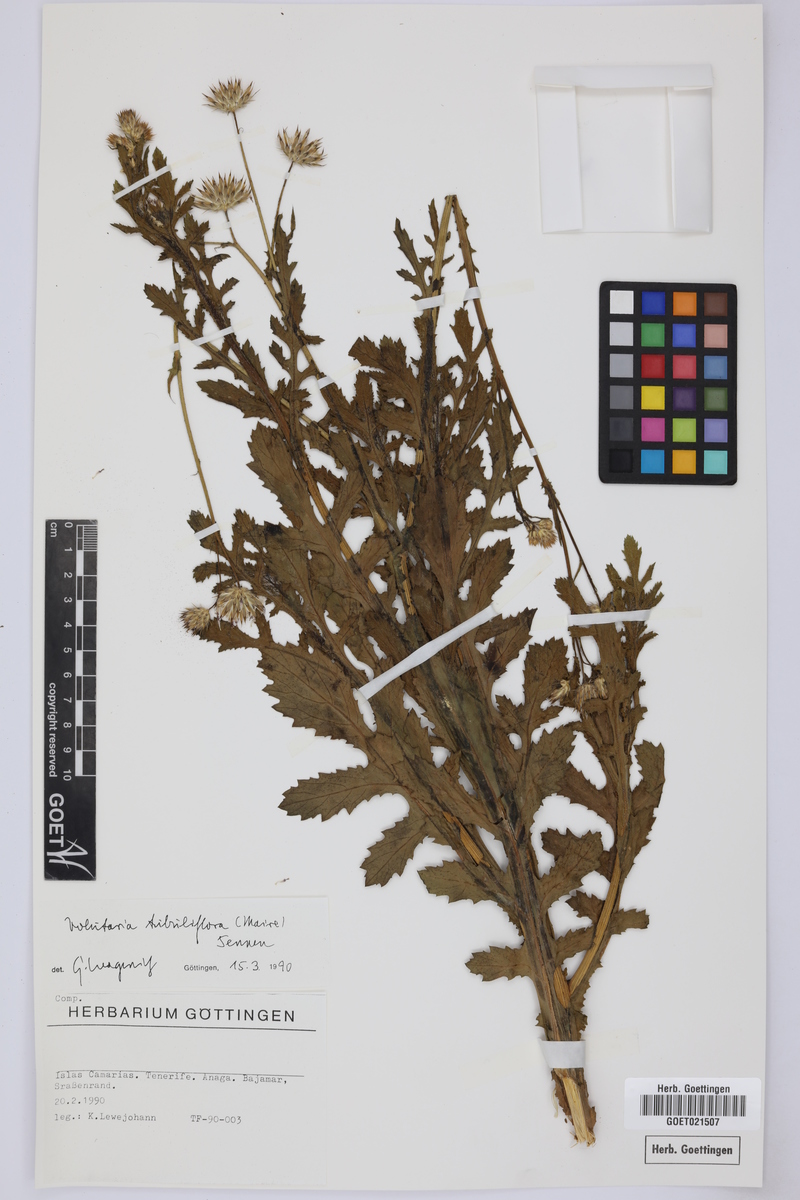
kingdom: Plantae
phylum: Tracheophyta
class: Magnoliopsida
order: Asterales
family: Asteraceae
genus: Volutaria
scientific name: Volutaria tubuliflora
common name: Desert knapweed
